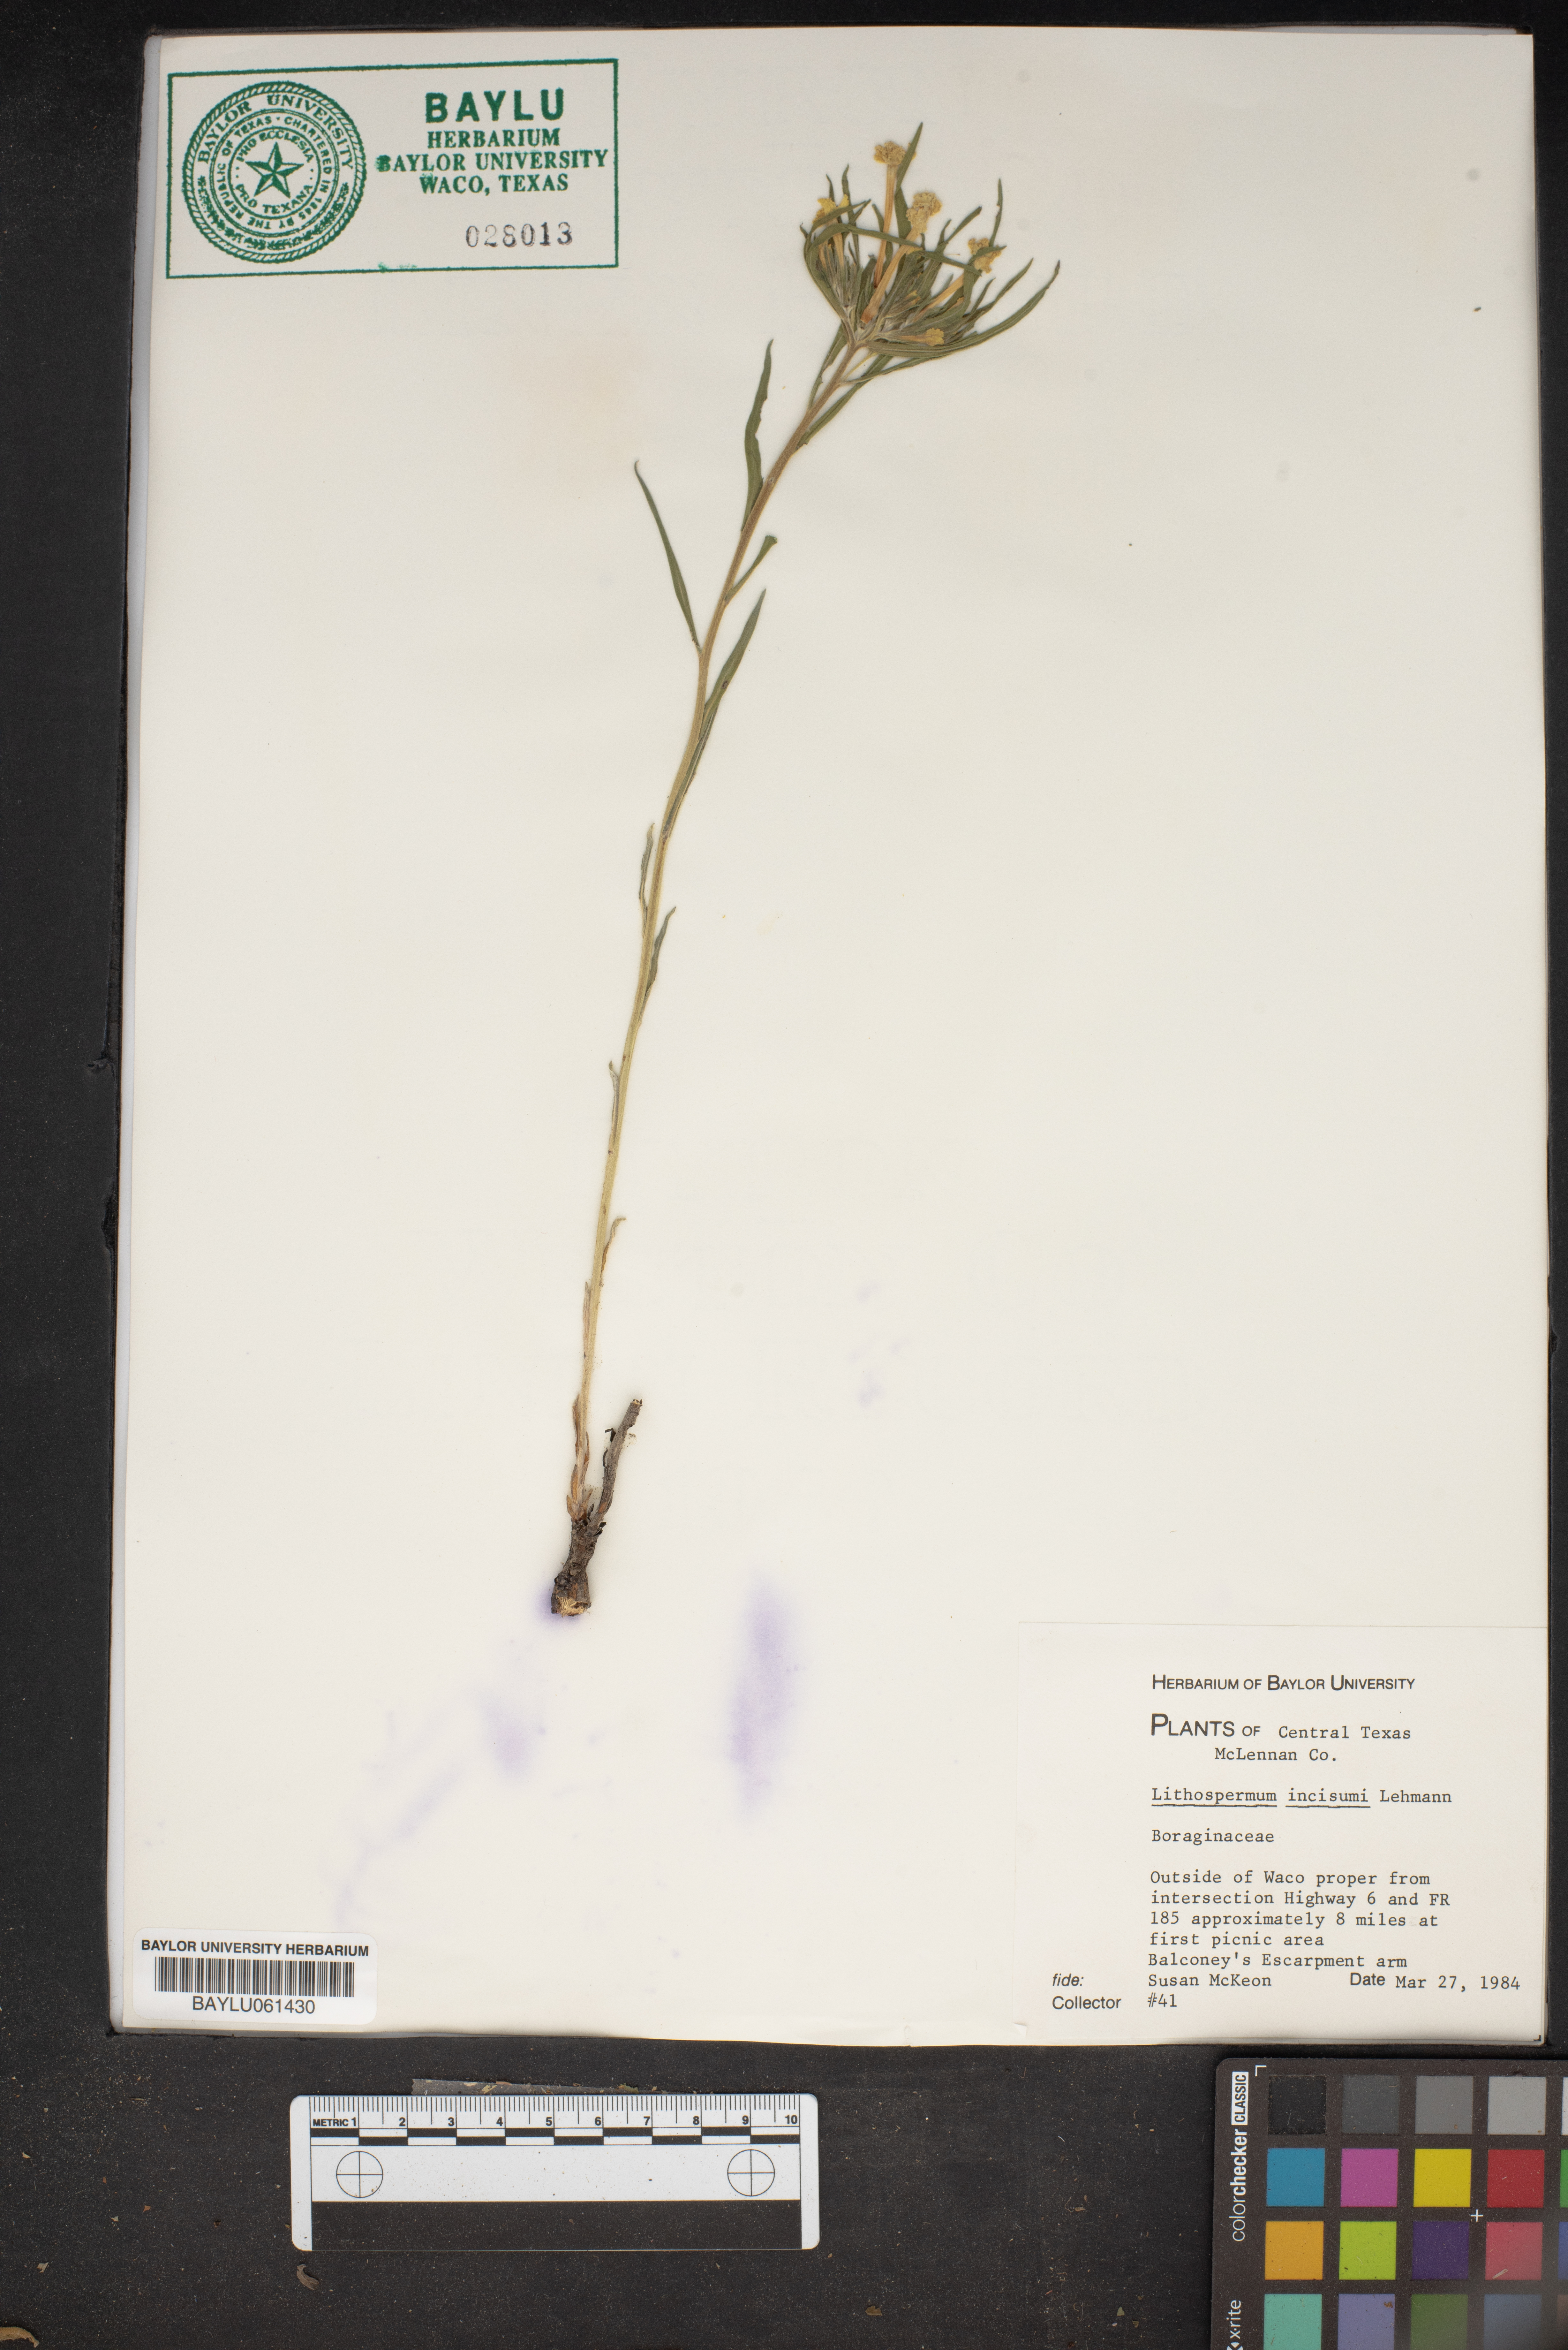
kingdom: Plantae
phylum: Tracheophyta
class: Magnoliopsida
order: Boraginales
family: Boraginaceae
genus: Lithospermum
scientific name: Lithospermum incisum
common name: Fringed gromwell
